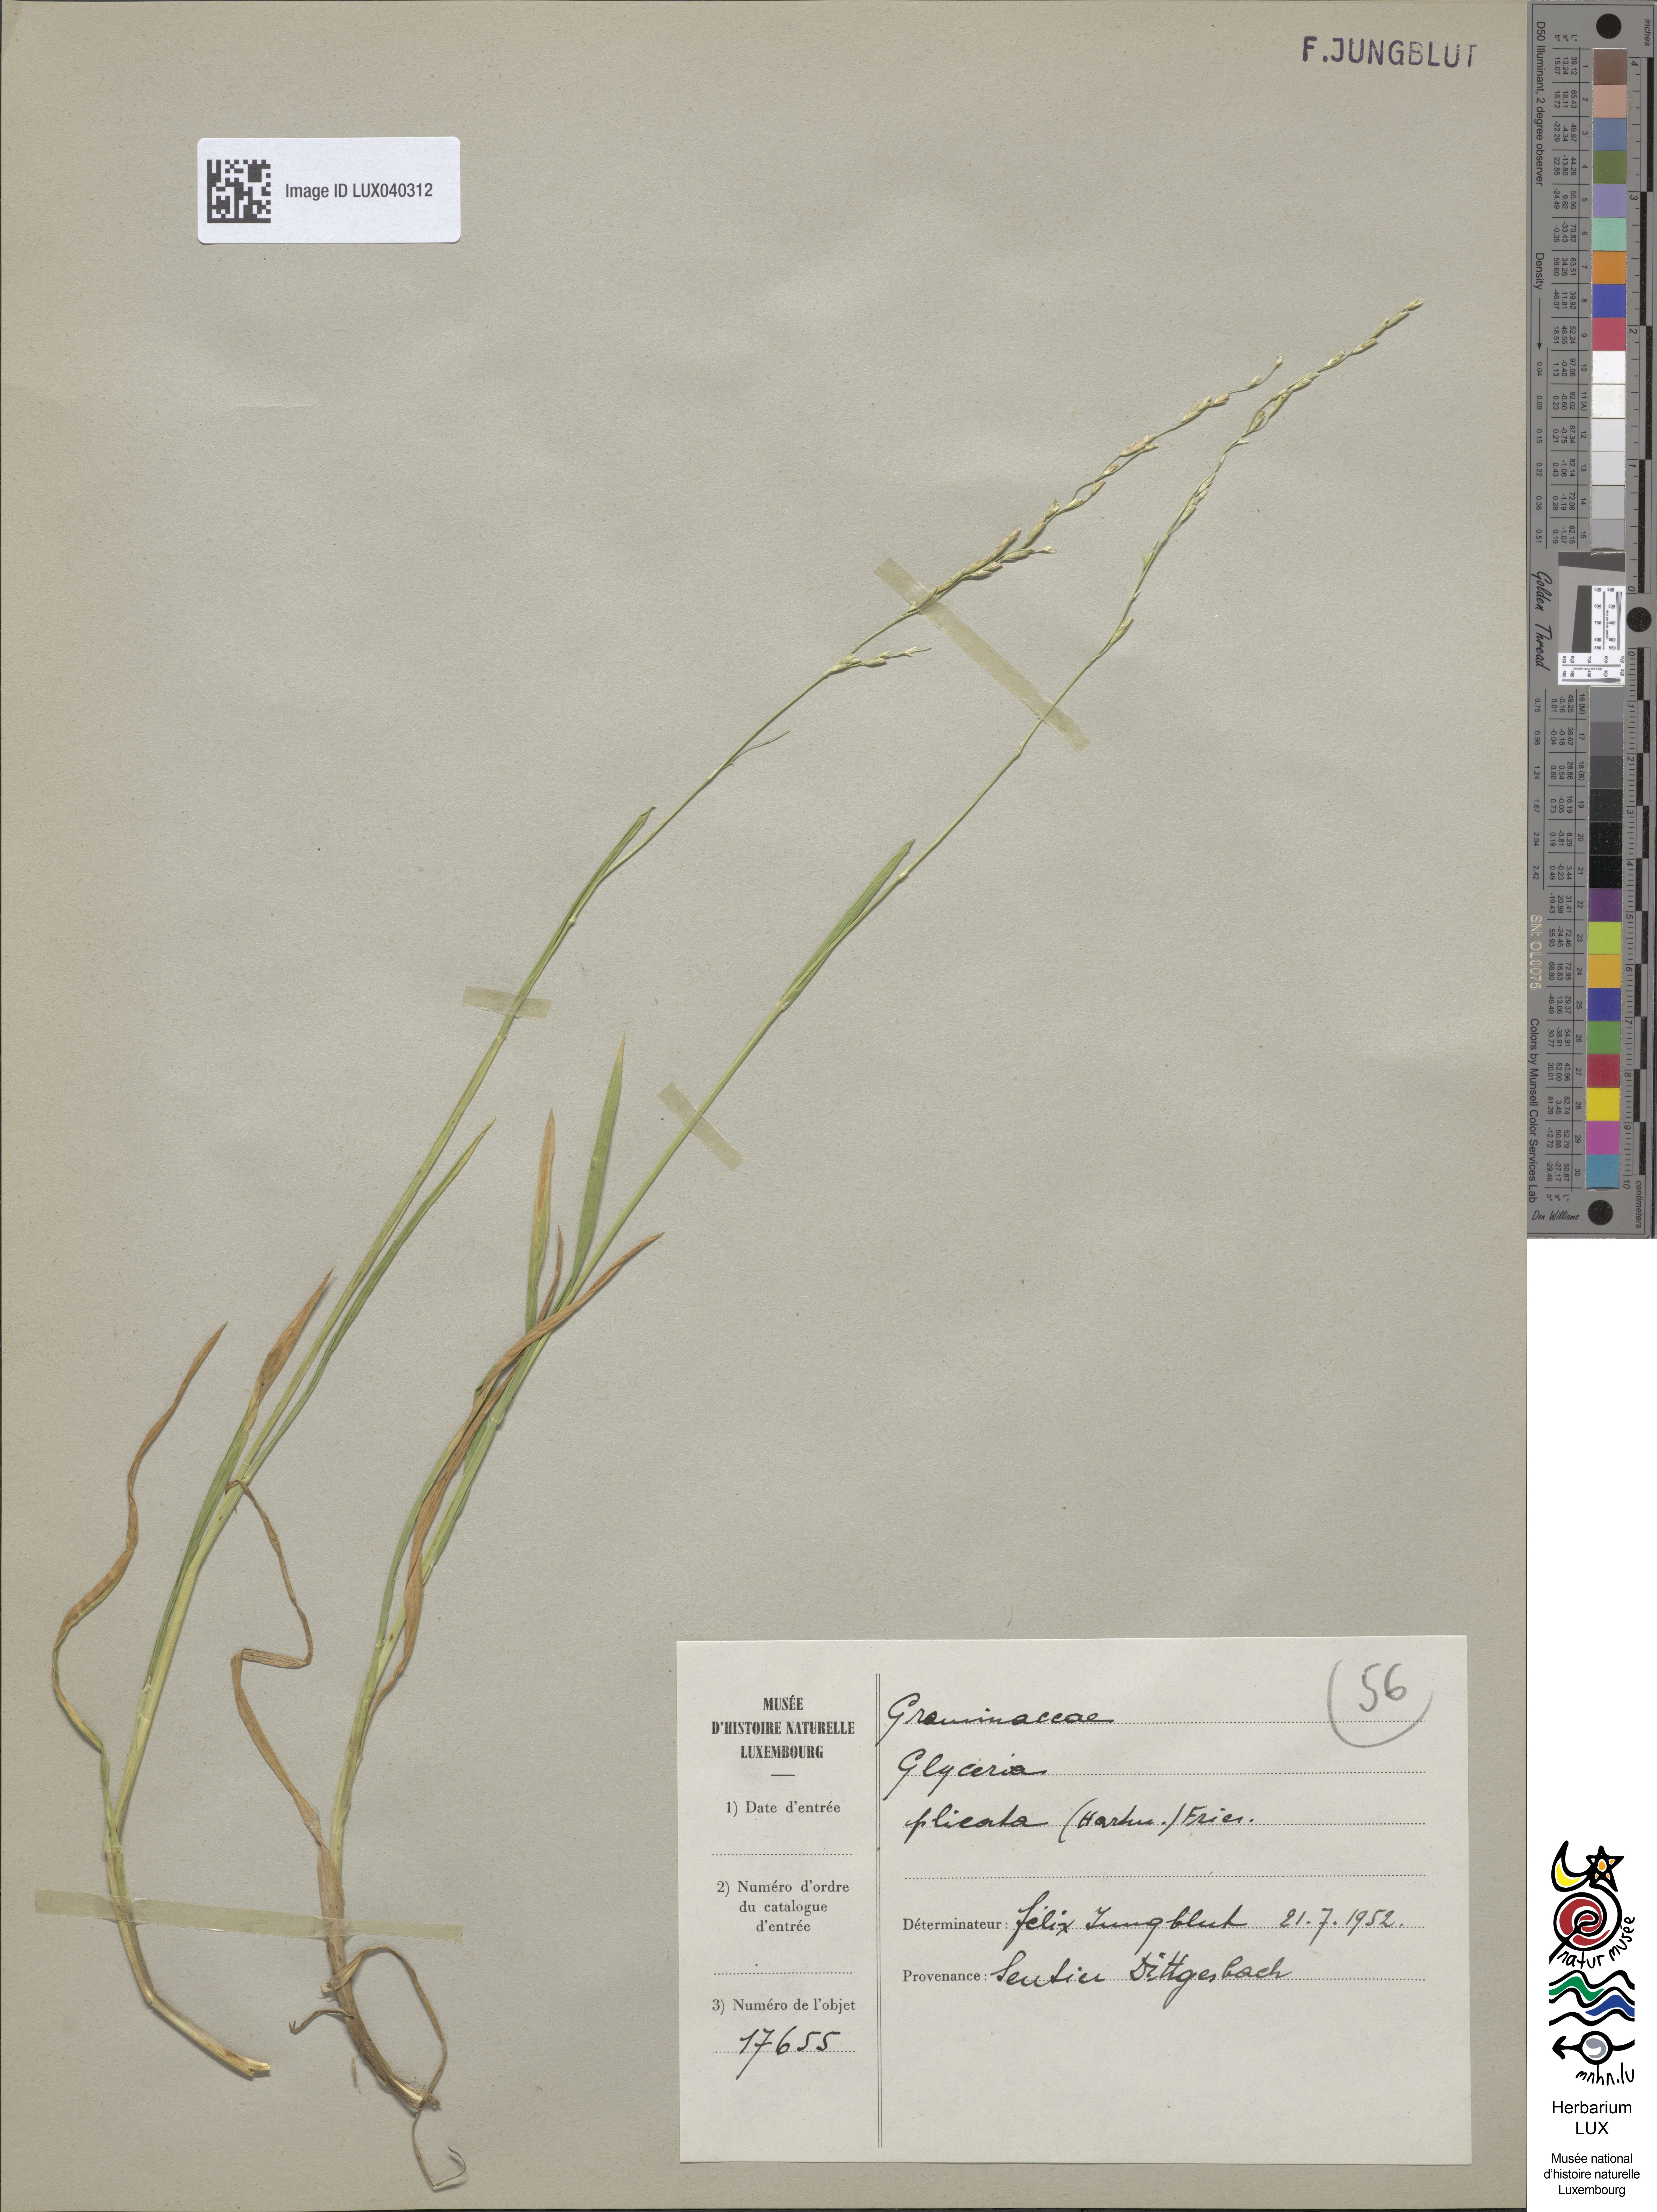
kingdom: Plantae
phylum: Tracheophyta
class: Liliopsida
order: Poales
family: Poaceae
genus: Glyceria
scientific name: Glyceria notata
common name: Plicate sweet-grass
